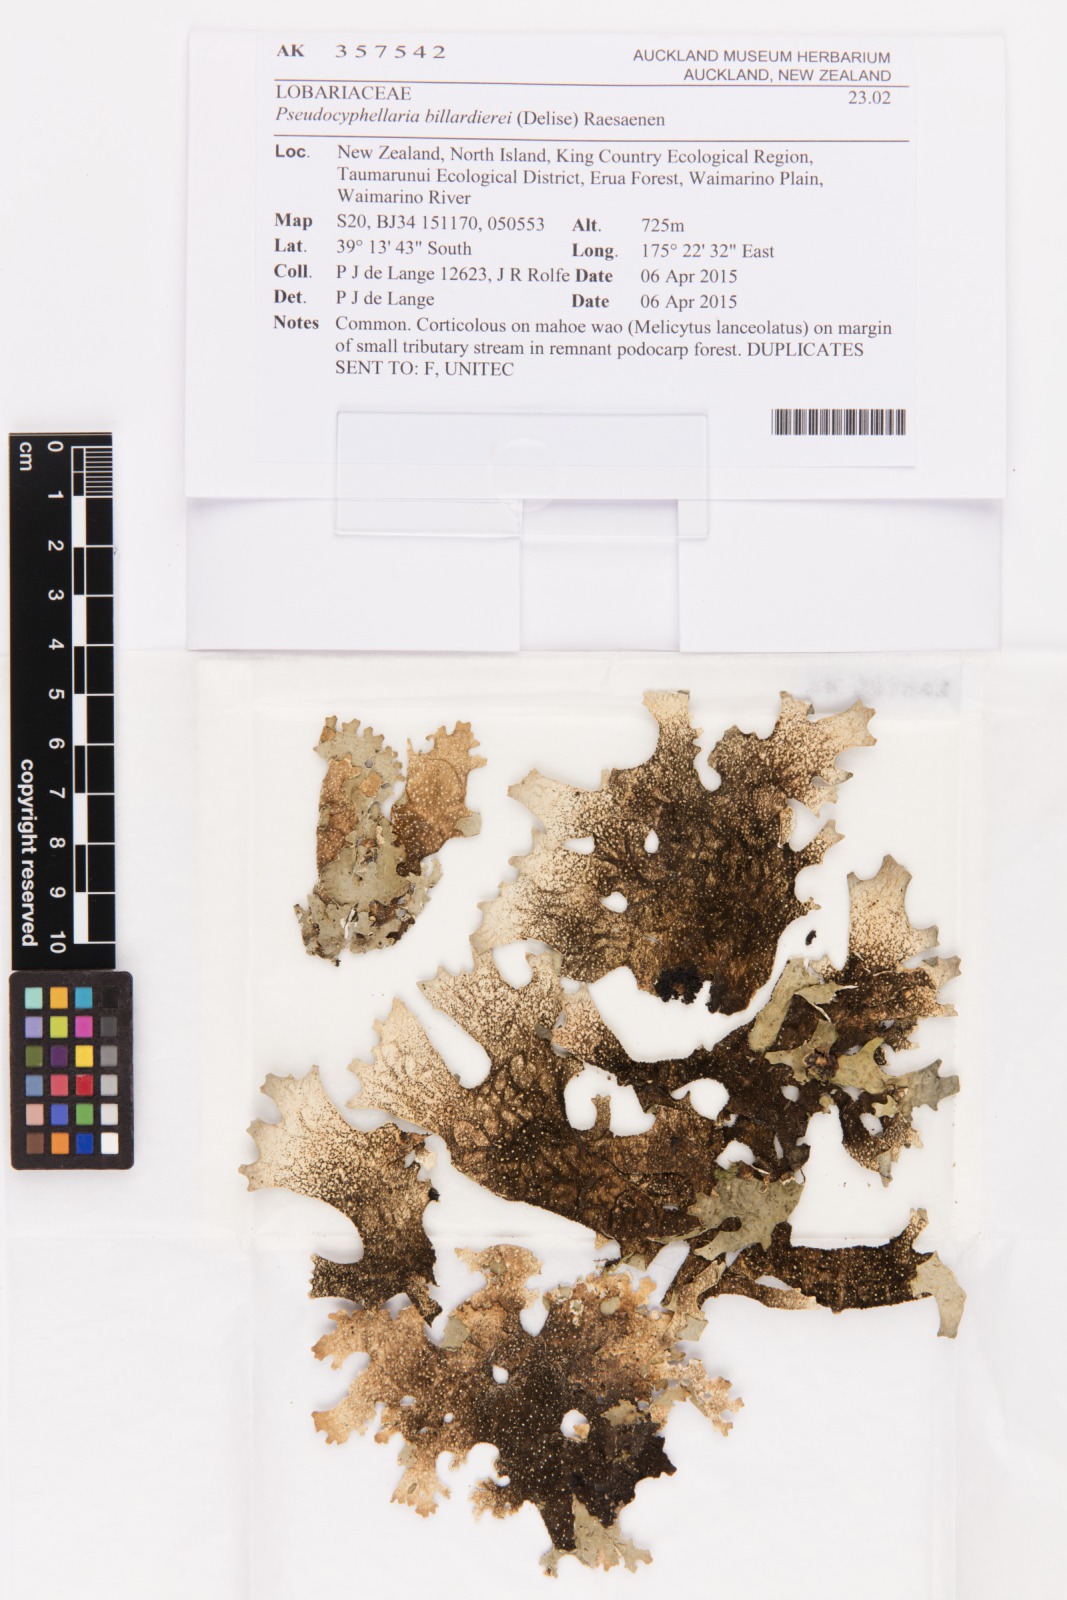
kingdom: Fungi
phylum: Ascomycota
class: Lecanoromycetes
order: Peltigerales
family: Lobariaceae
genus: Pseudocyphellaria
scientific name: Pseudocyphellaria billardierei
